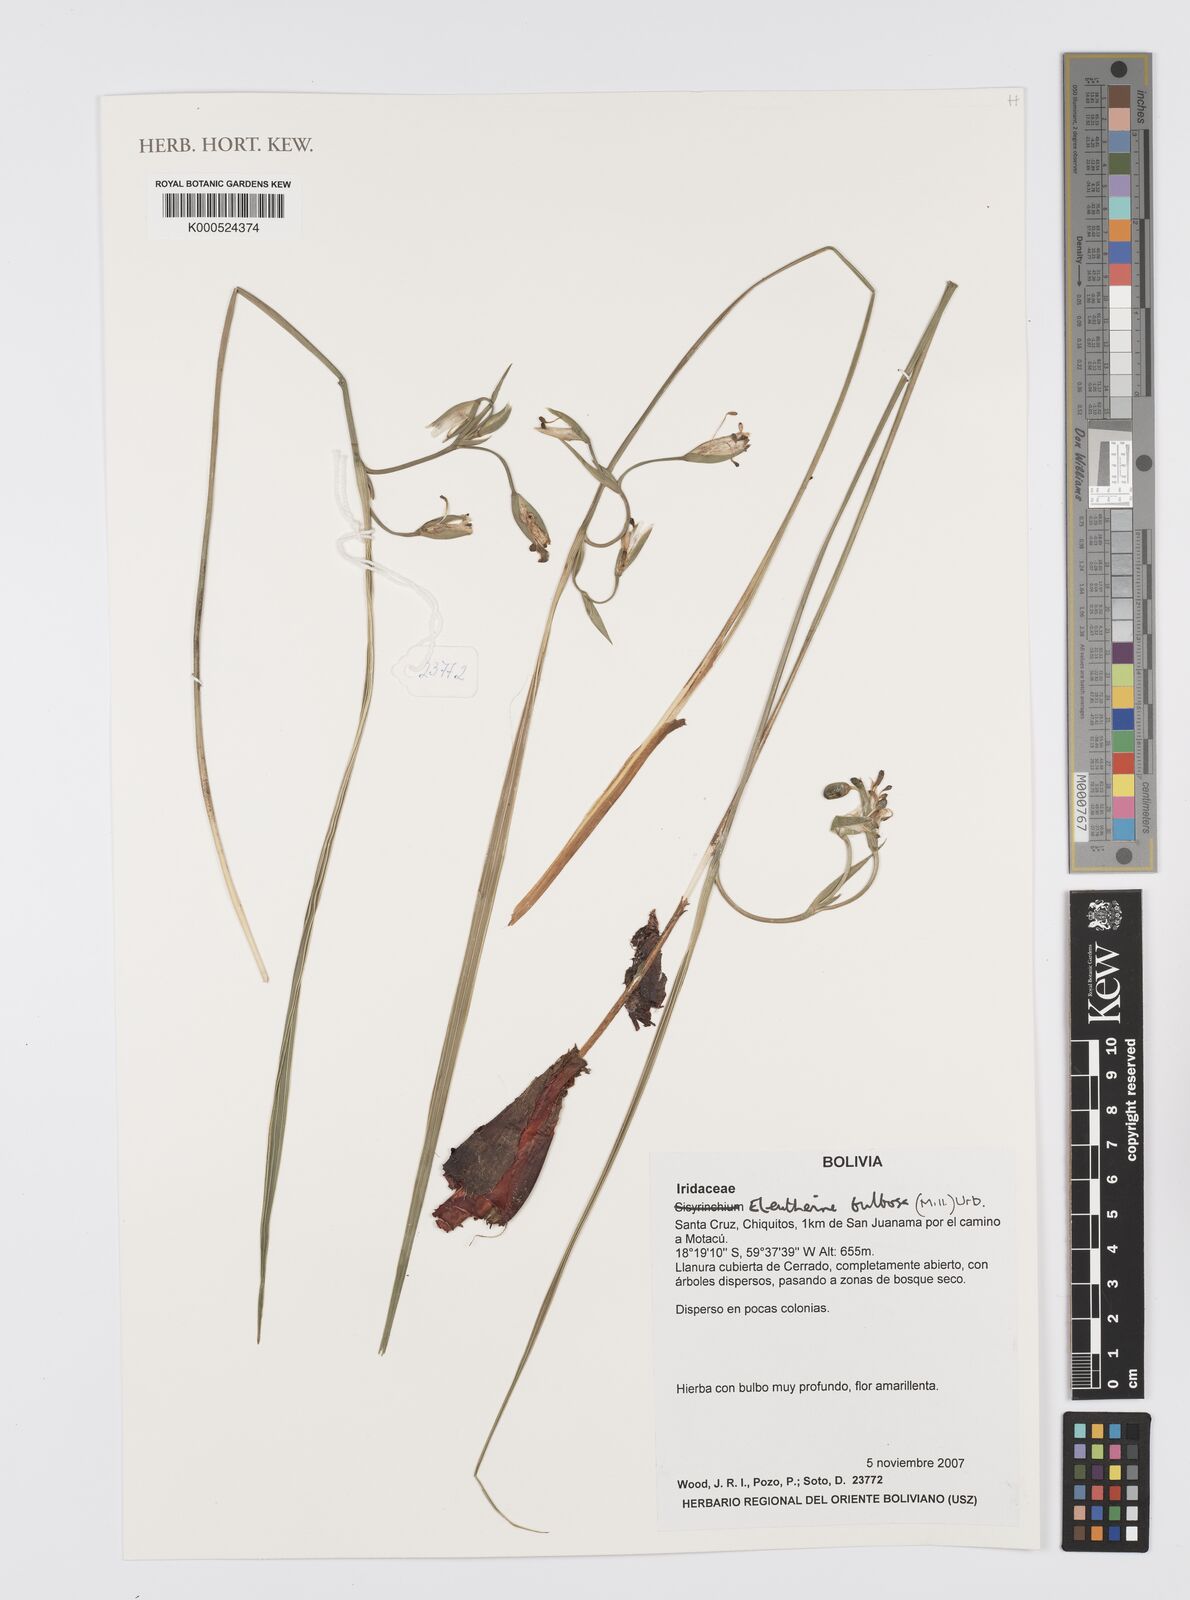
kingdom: Plantae
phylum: Tracheophyta
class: Liliopsida
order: Asparagales
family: Iridaceae
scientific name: Iridaceae
